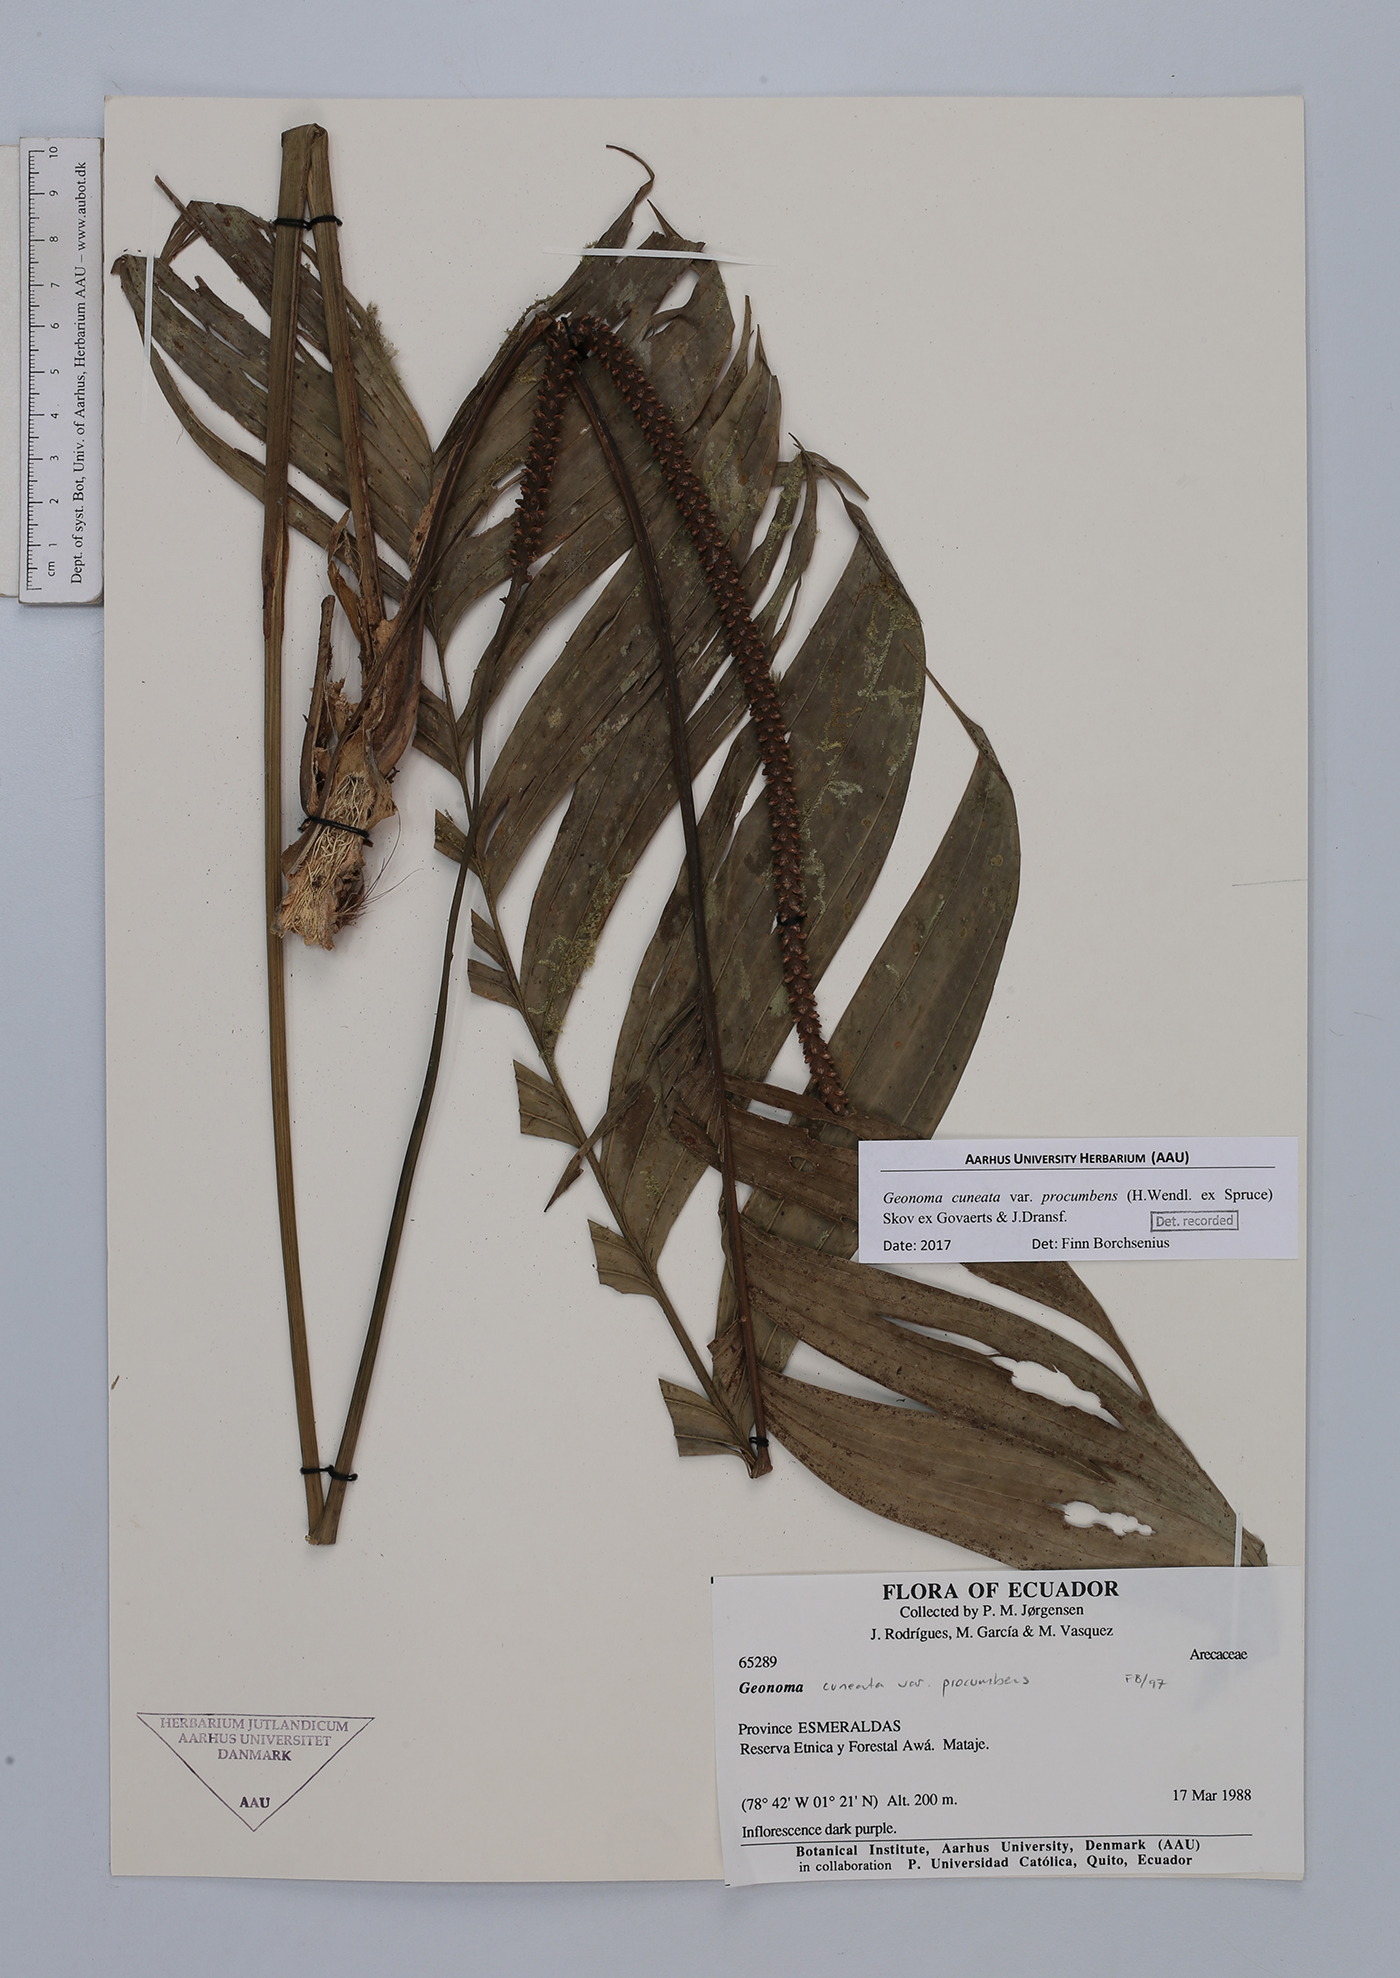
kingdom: Plantae
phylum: Tracheophyta
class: Liliopsida
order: Arecales
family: Arecaceae
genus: Geonoma
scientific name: Geonoma cuneata
